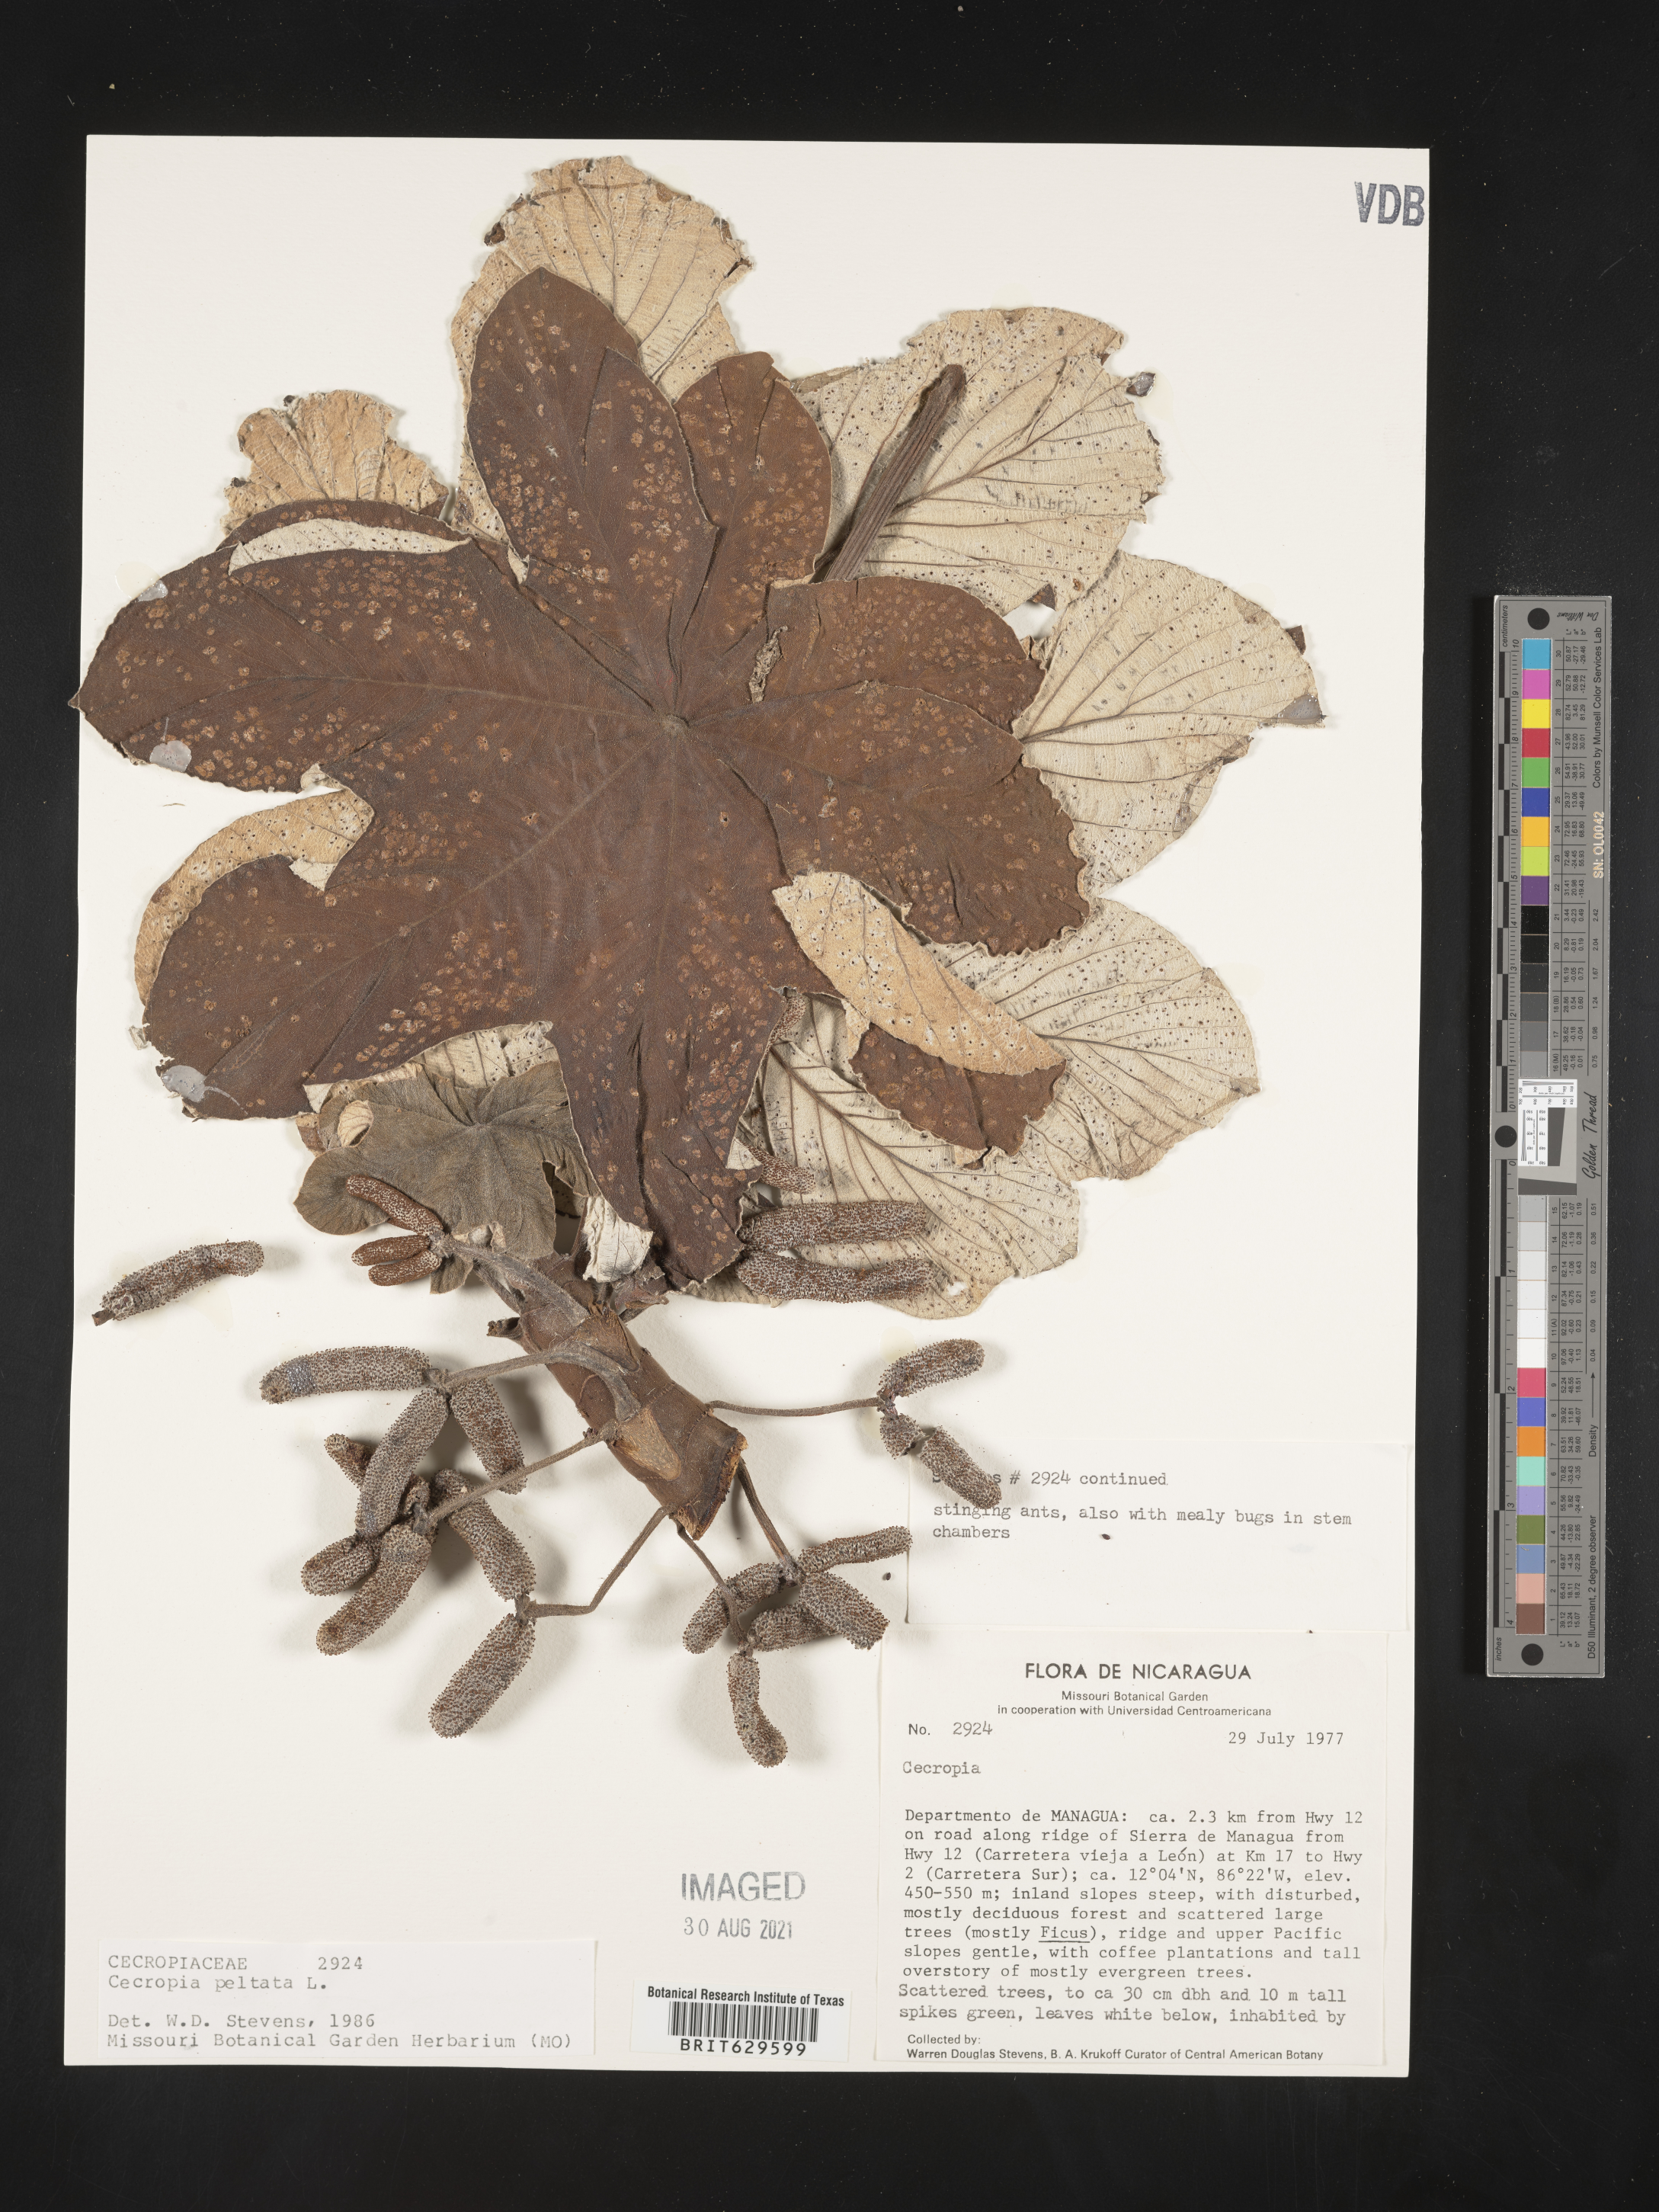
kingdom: Plantae
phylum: Tracheophyta
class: Magnoliopsida
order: Rosales
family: Urticaceae
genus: Cecropia
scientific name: Cecropia
